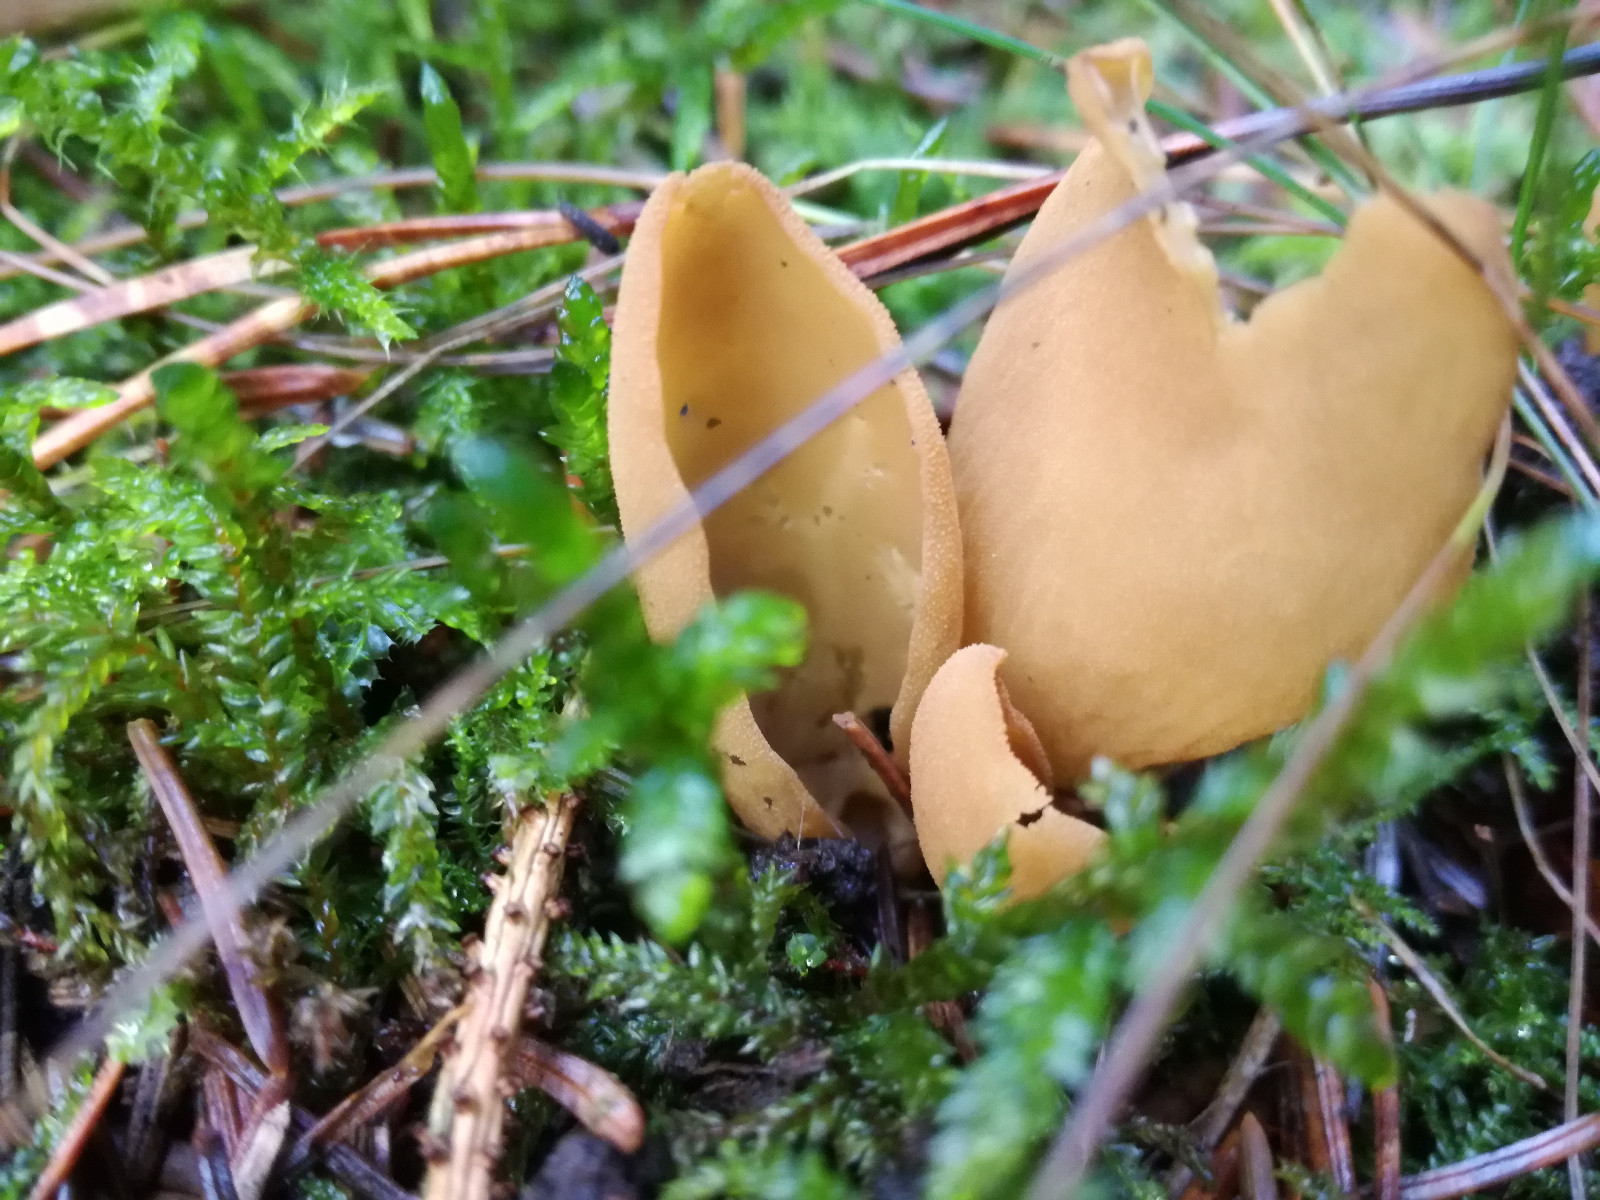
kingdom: Fungi
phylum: Ascomycota
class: Pezizomycetes
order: Pezizales
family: Otideaceae
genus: Otidea
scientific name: Otidea
